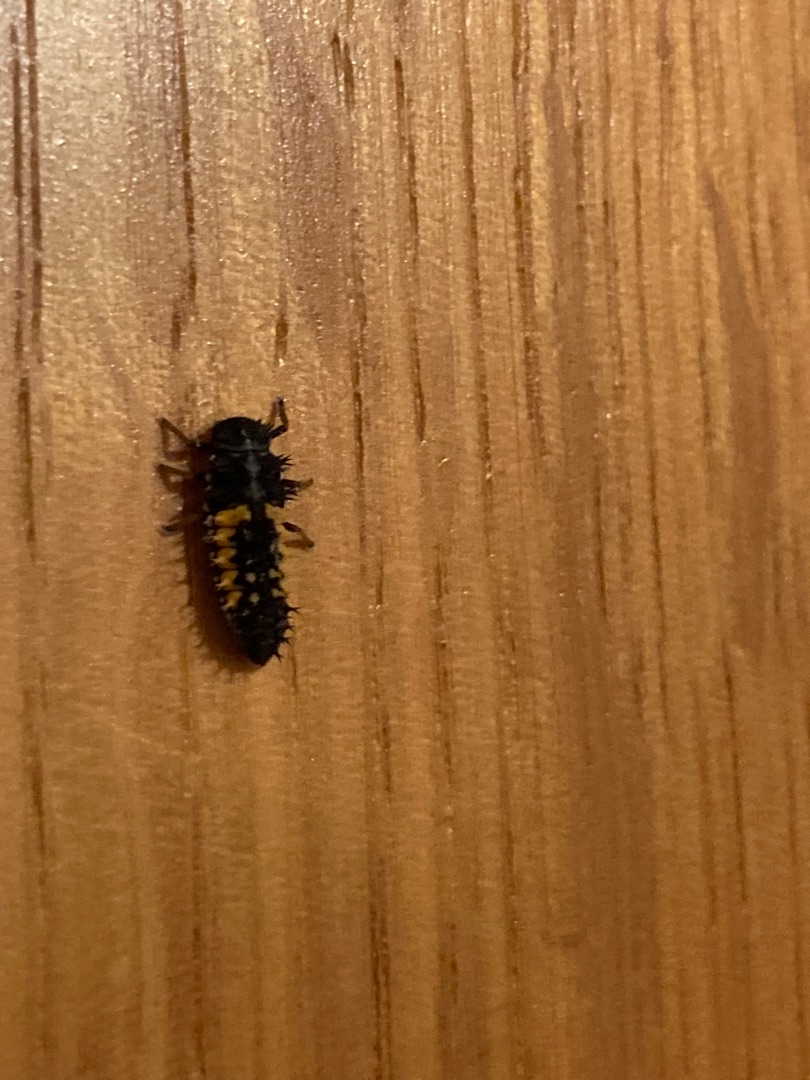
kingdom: Animalia
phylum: Arthropoda
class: Insecta
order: Coleoptera
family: Coccinellidae
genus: Harmonia
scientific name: Harmonia axyridis
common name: Harlekinmariehøne
